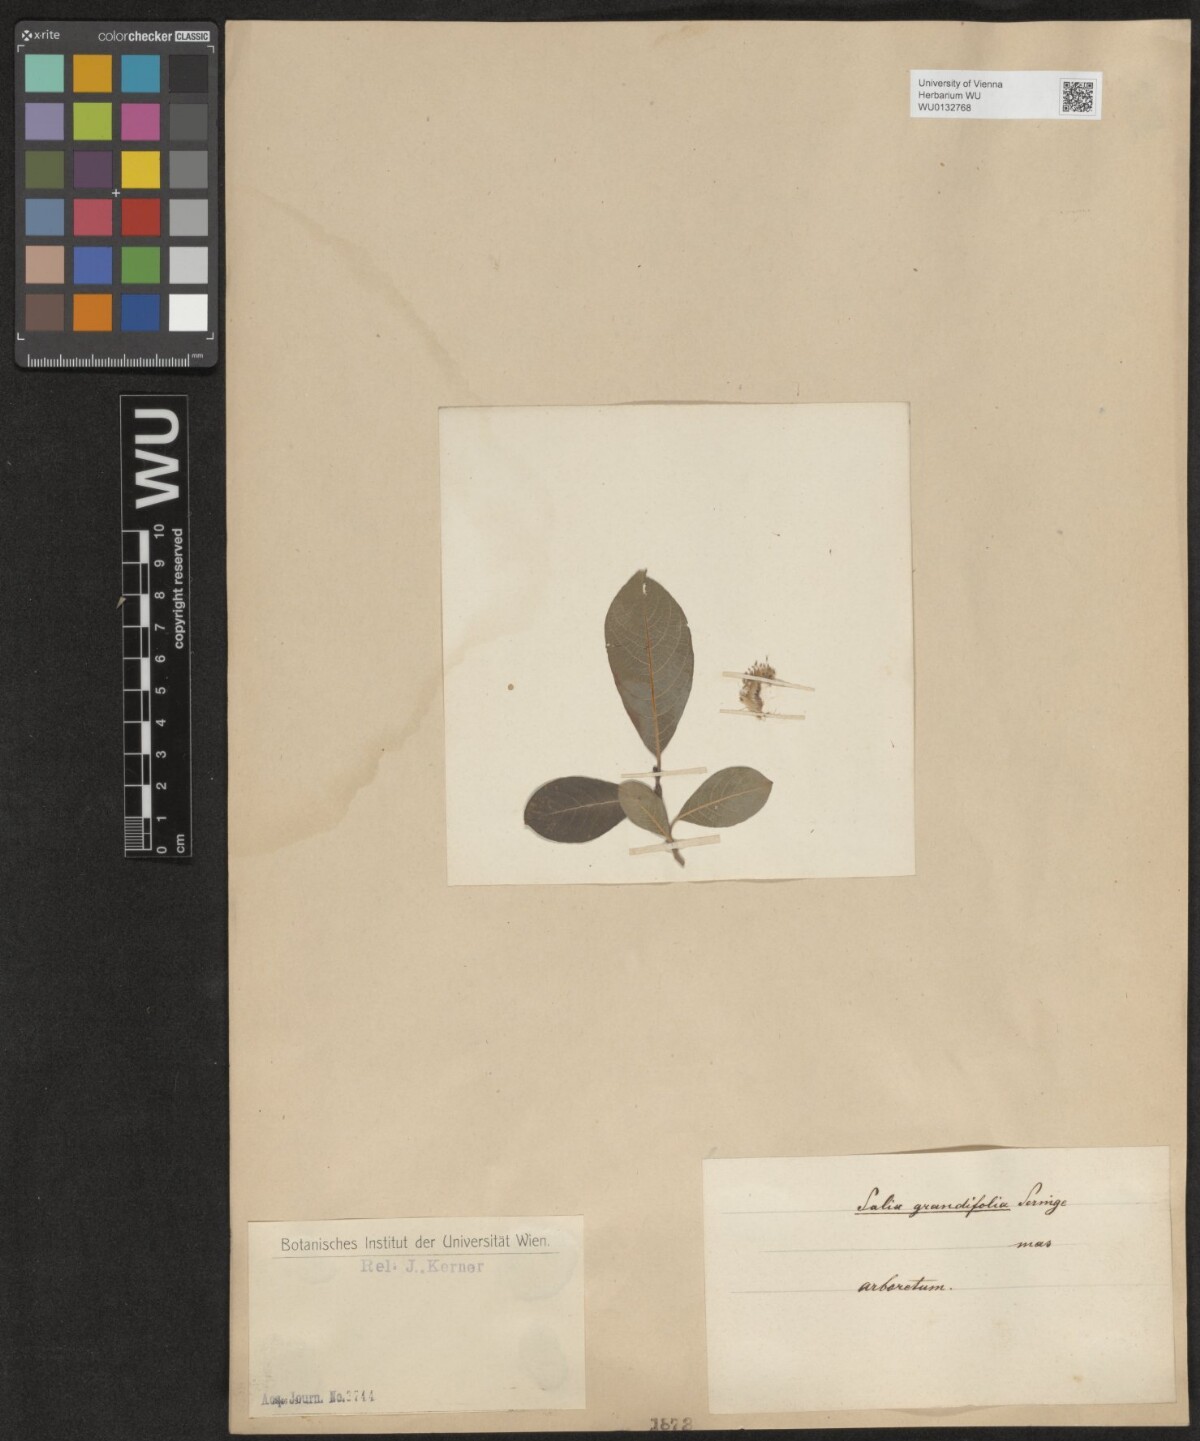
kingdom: Plantae
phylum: Tracheophyta
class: Magnoliopsida
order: Malpighiales
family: Salicaceae
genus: Salix
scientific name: Salix appendiculata
